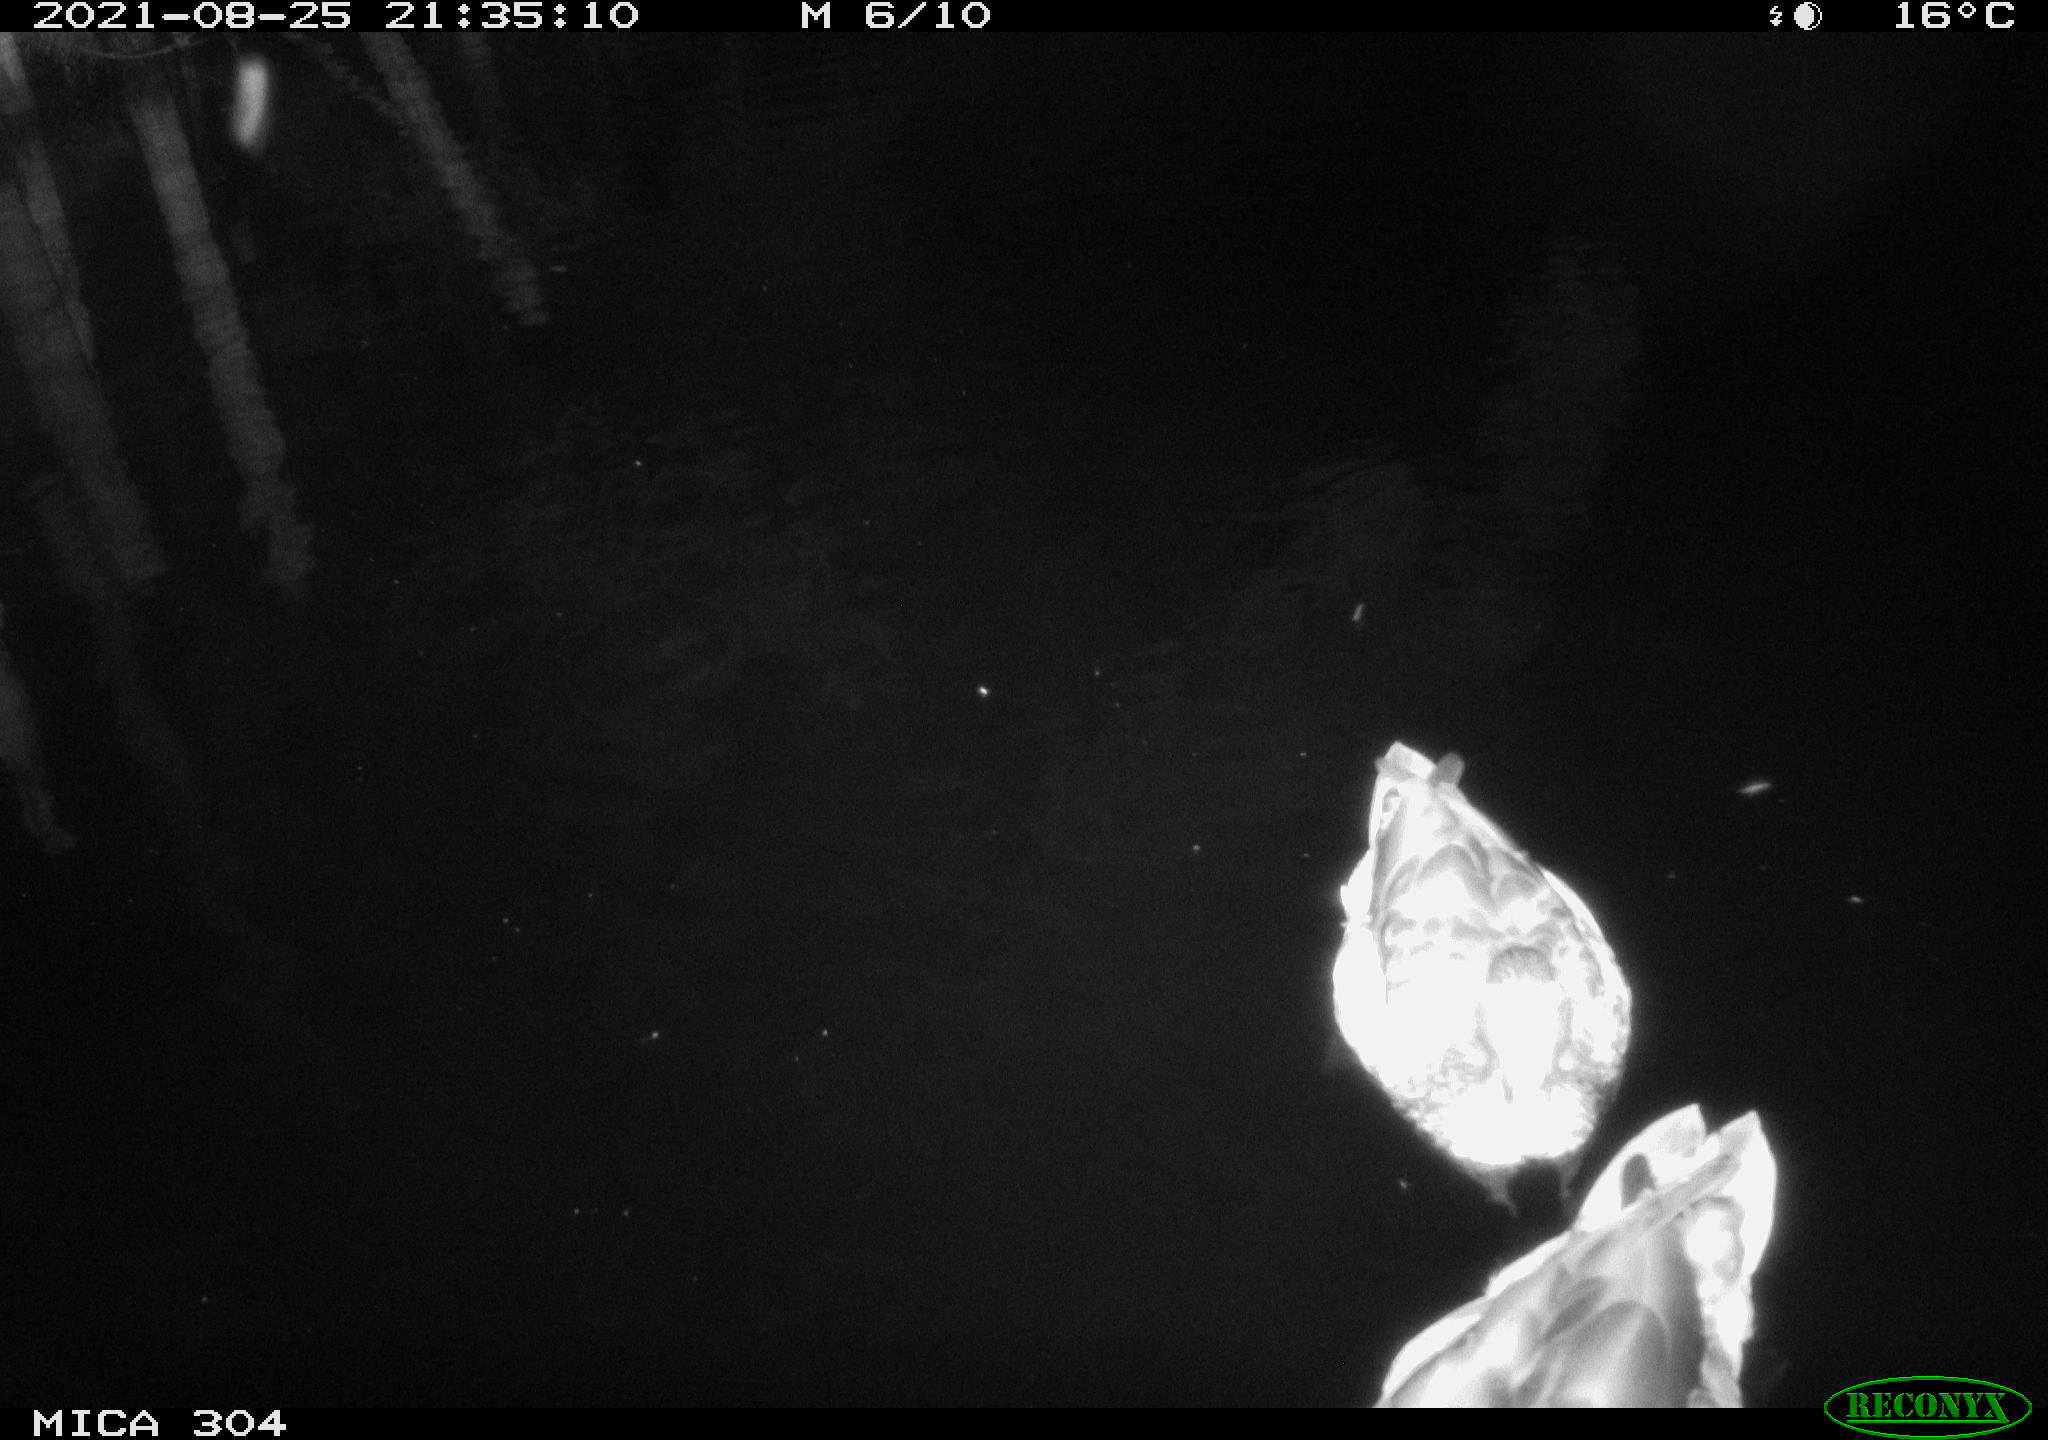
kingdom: Animalia
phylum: Chordata
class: Aves
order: Anseriformes
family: Anatidae
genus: Anas
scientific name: Anas platyrhynchos
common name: Mallard
